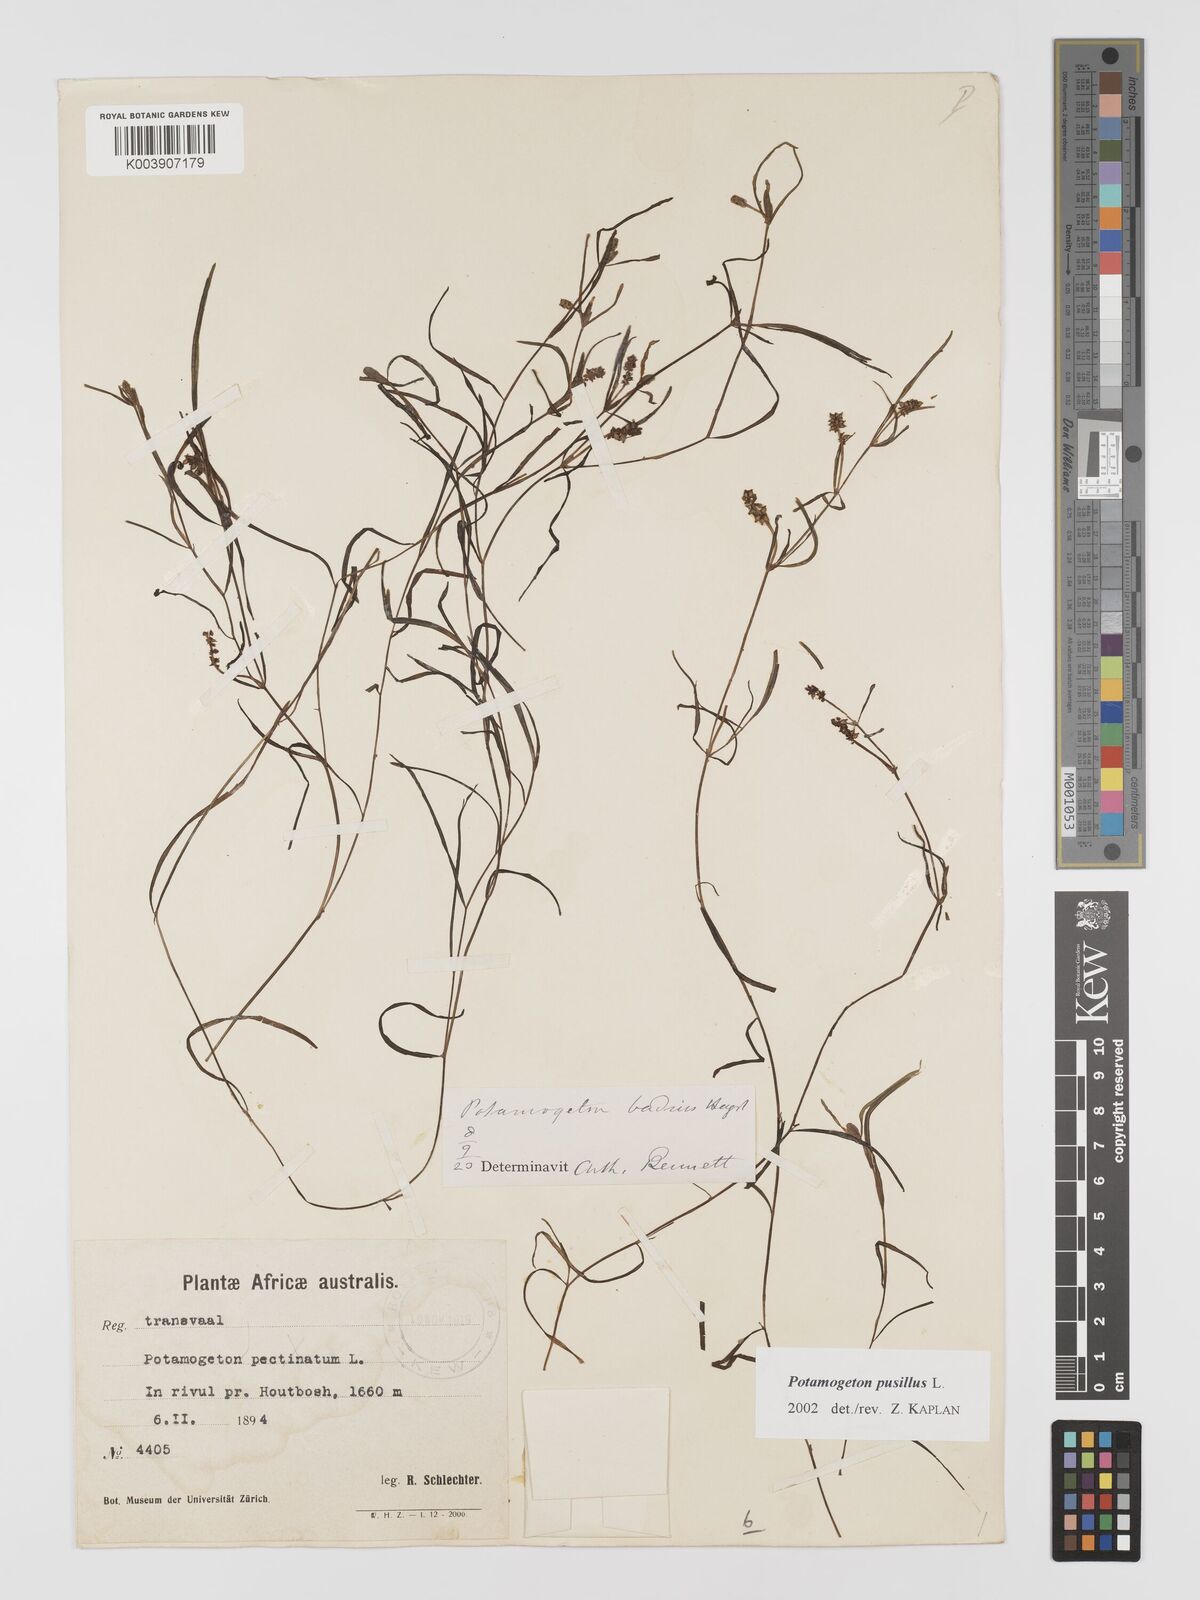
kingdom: Plantae
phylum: Tracheophyta
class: Liliopsida
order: Alismatales
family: Potamogetonaceae
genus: Potamogeton
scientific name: Potamogeton pusillus
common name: Lesser pondweed
